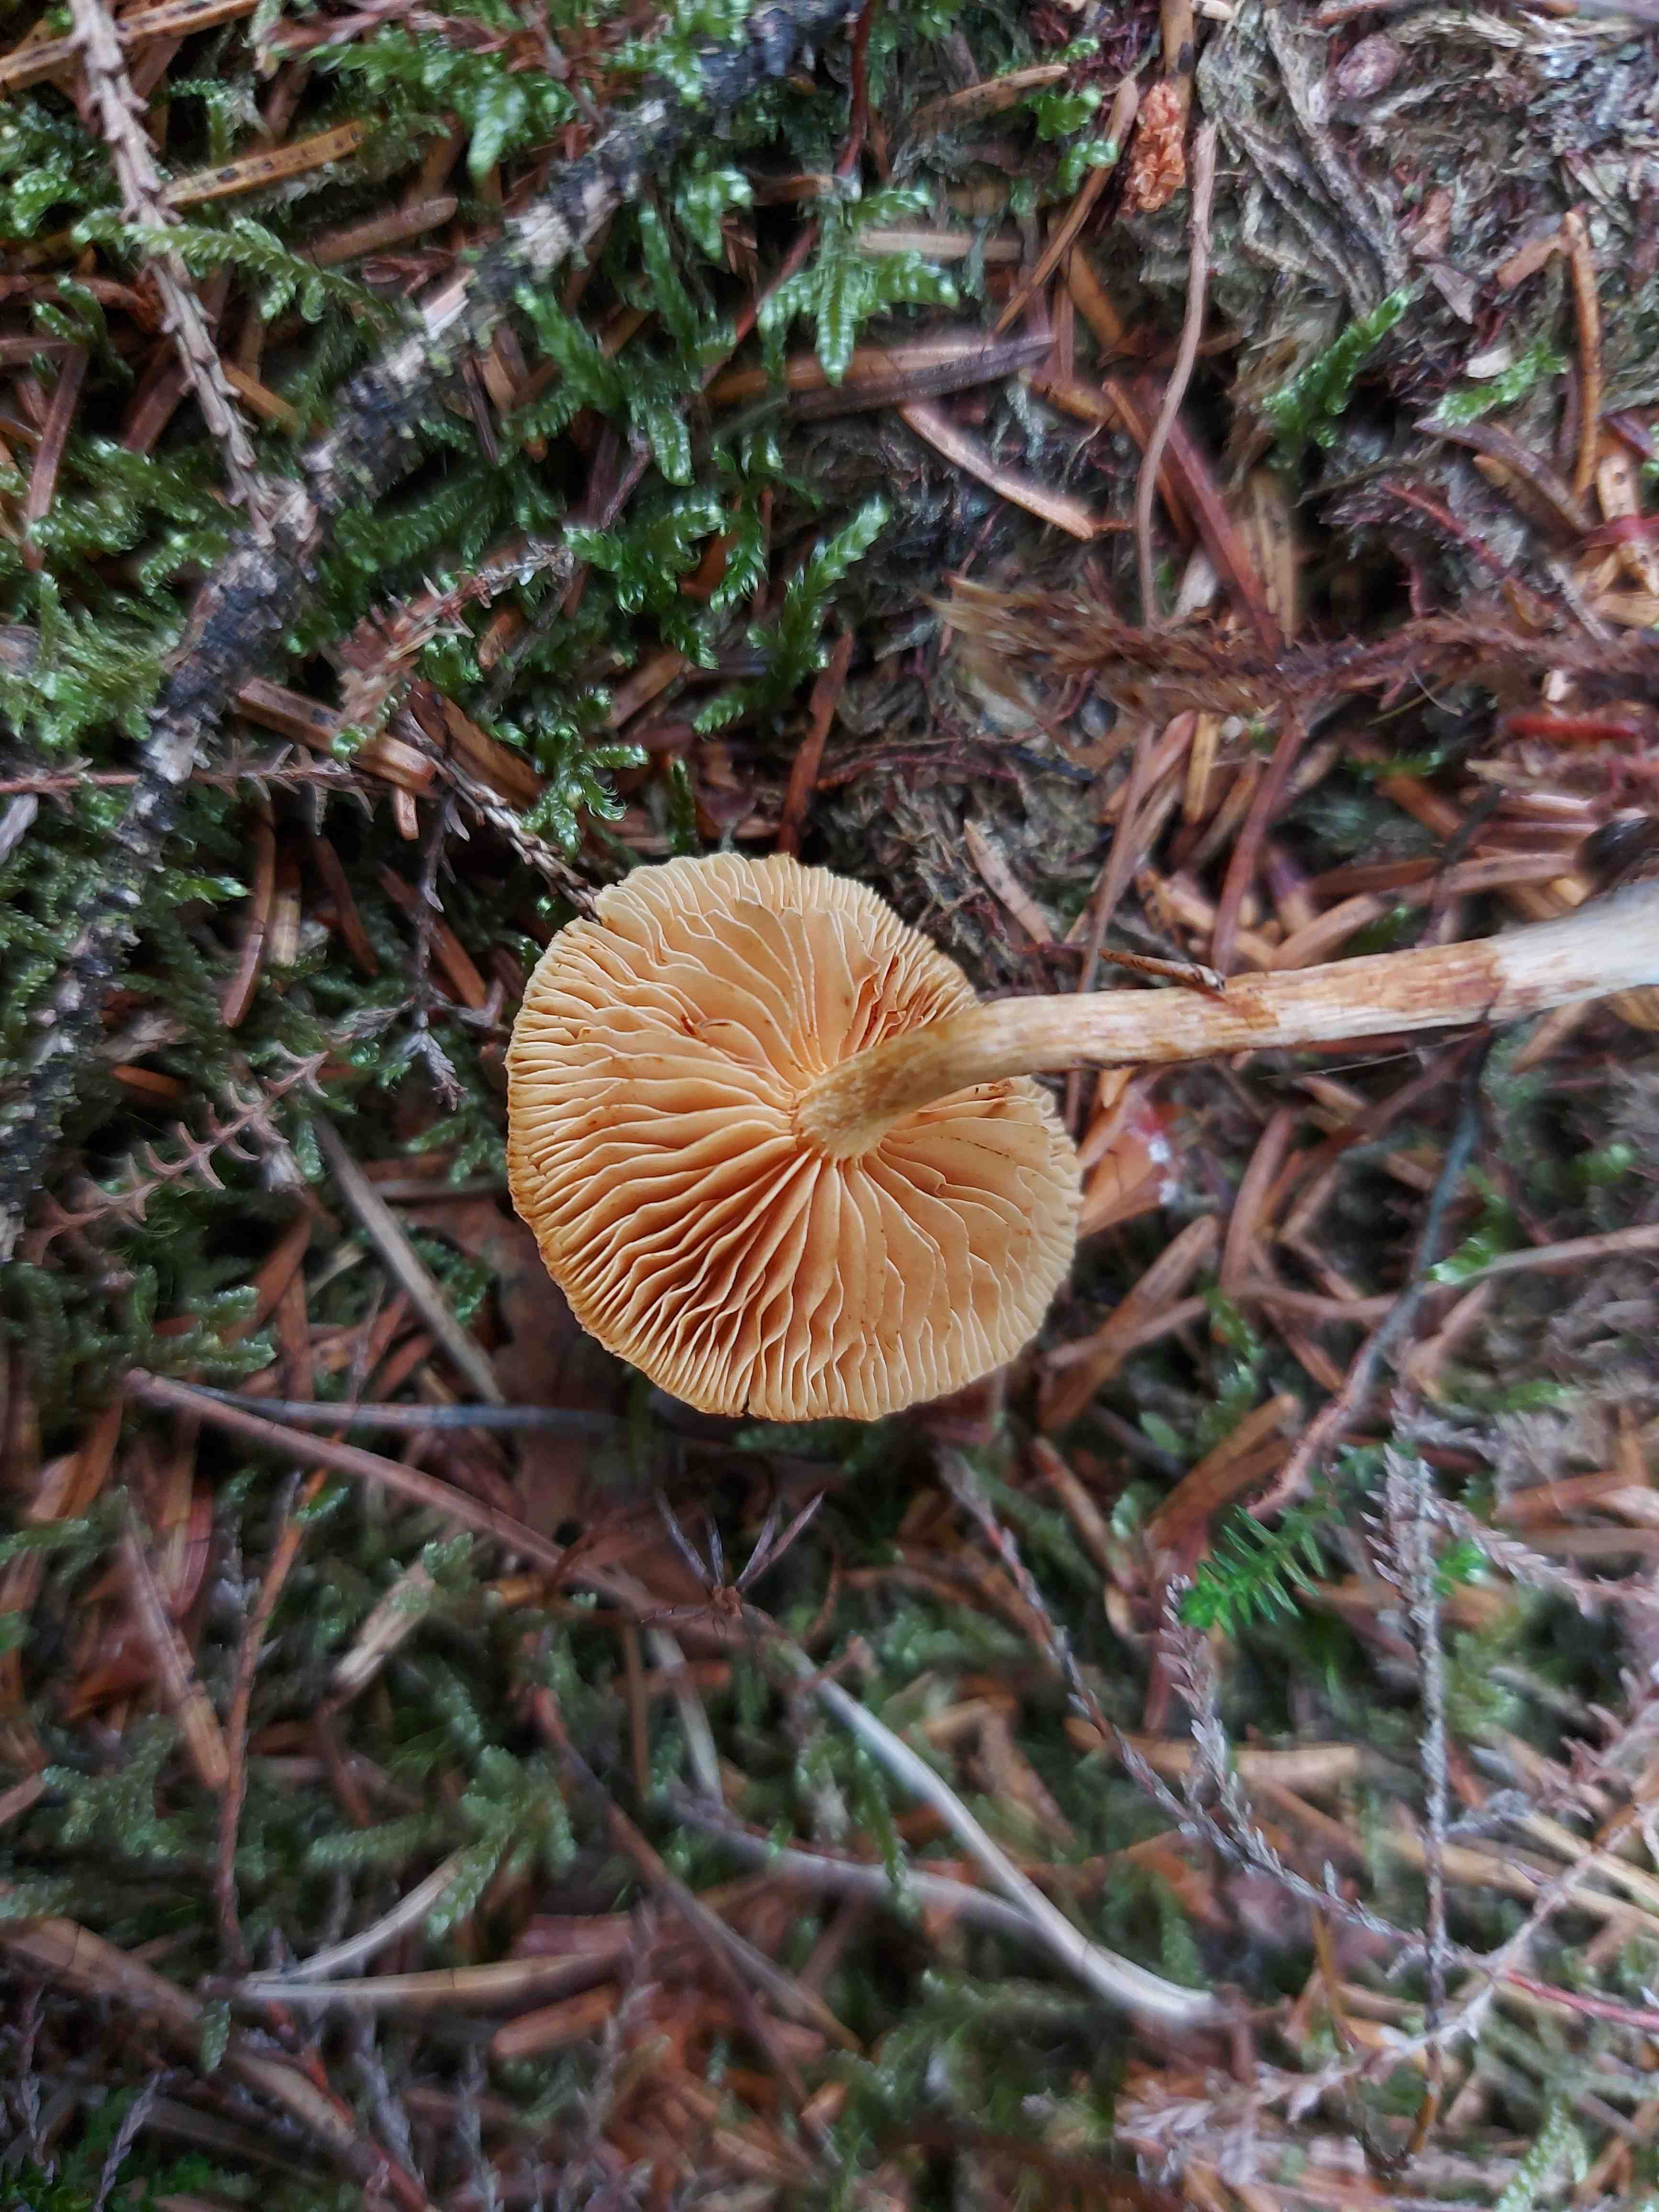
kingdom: Fungi
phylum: Basidiomycota
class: Agaricomycetes
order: Agaricales
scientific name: Agaricales
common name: champignonordenen
